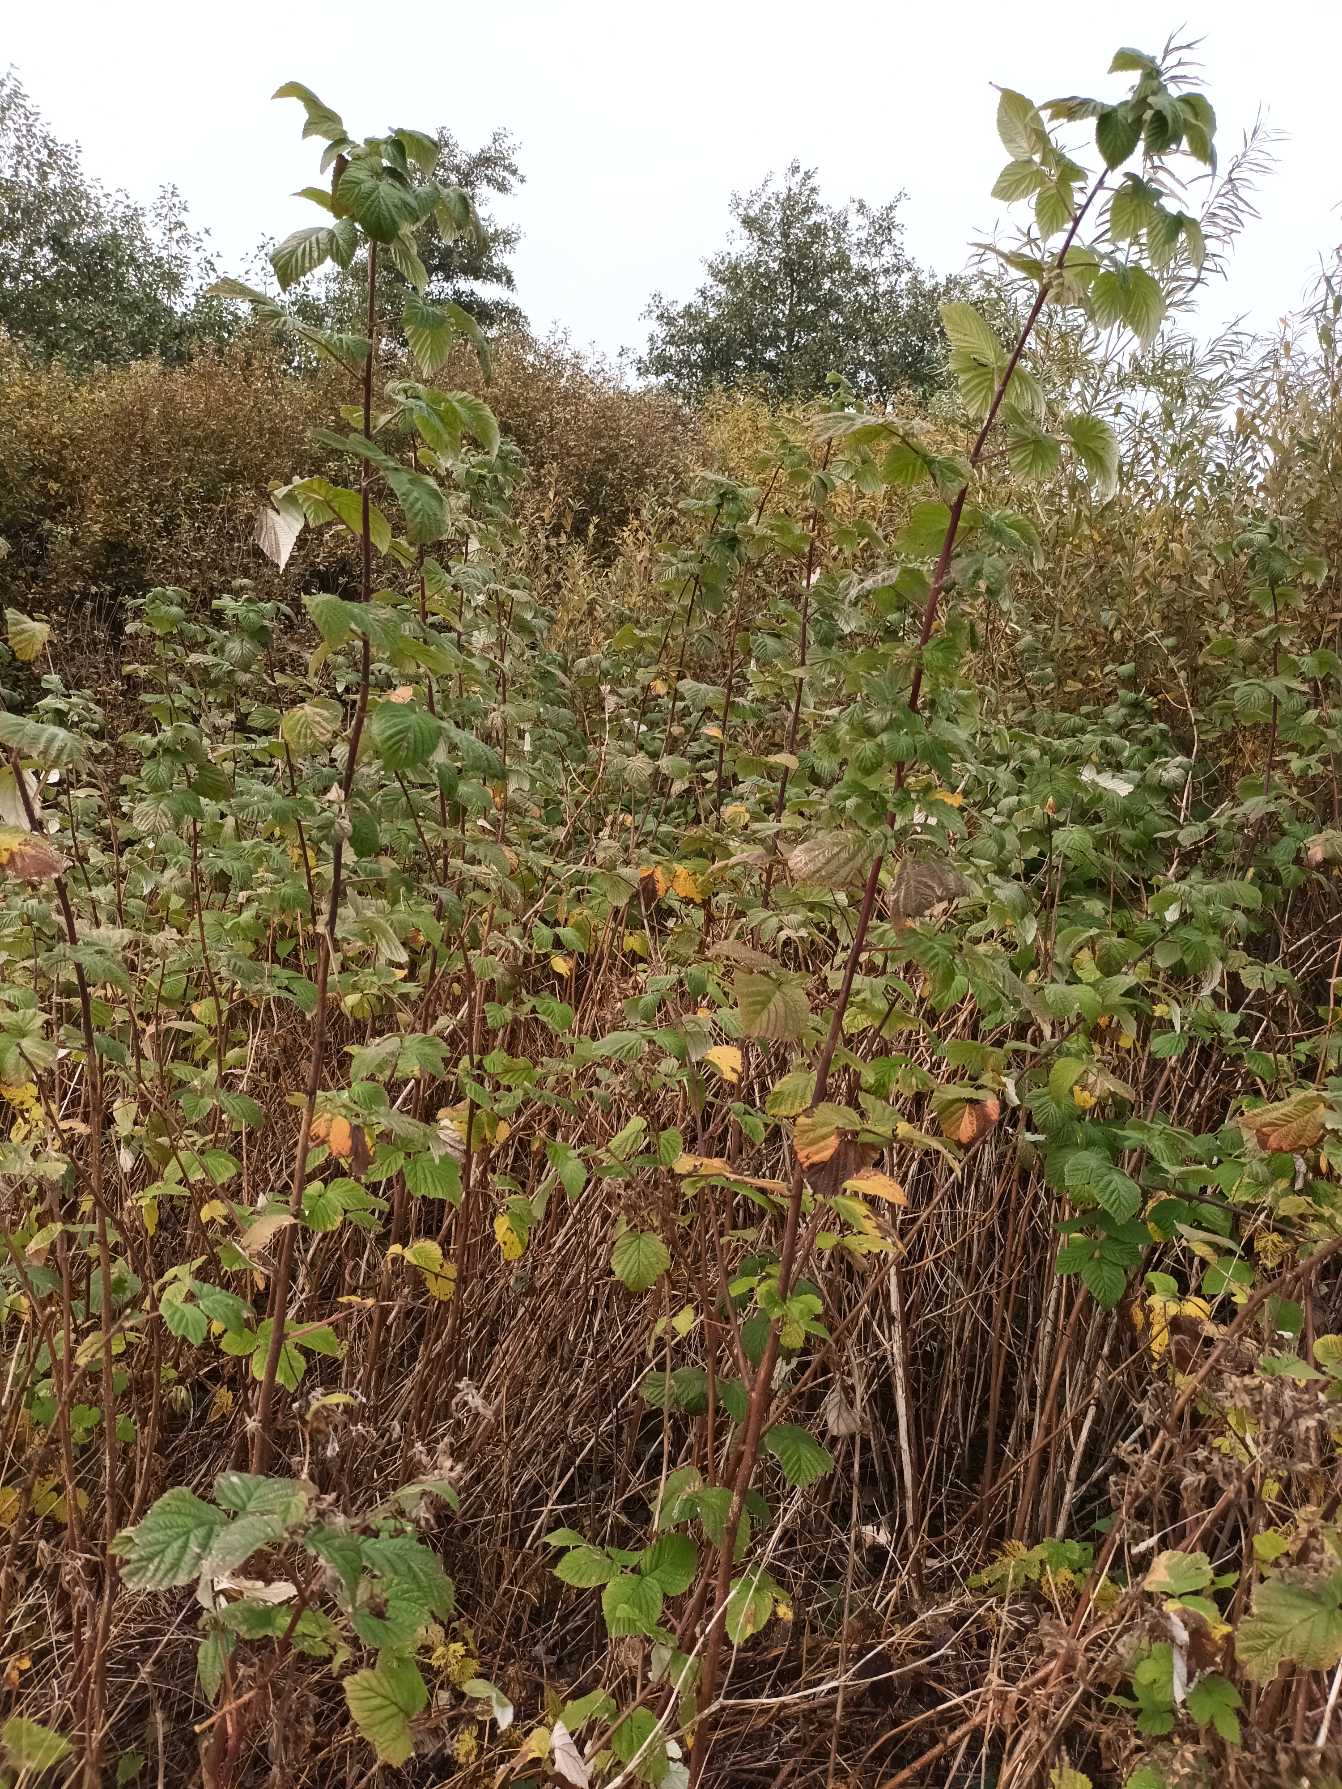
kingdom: Plantae
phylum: Tracheophyta
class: Magnoliopsida
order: Rosales
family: Rosaceae
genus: Rubus
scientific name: Rubus idaeus
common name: Hindbær
